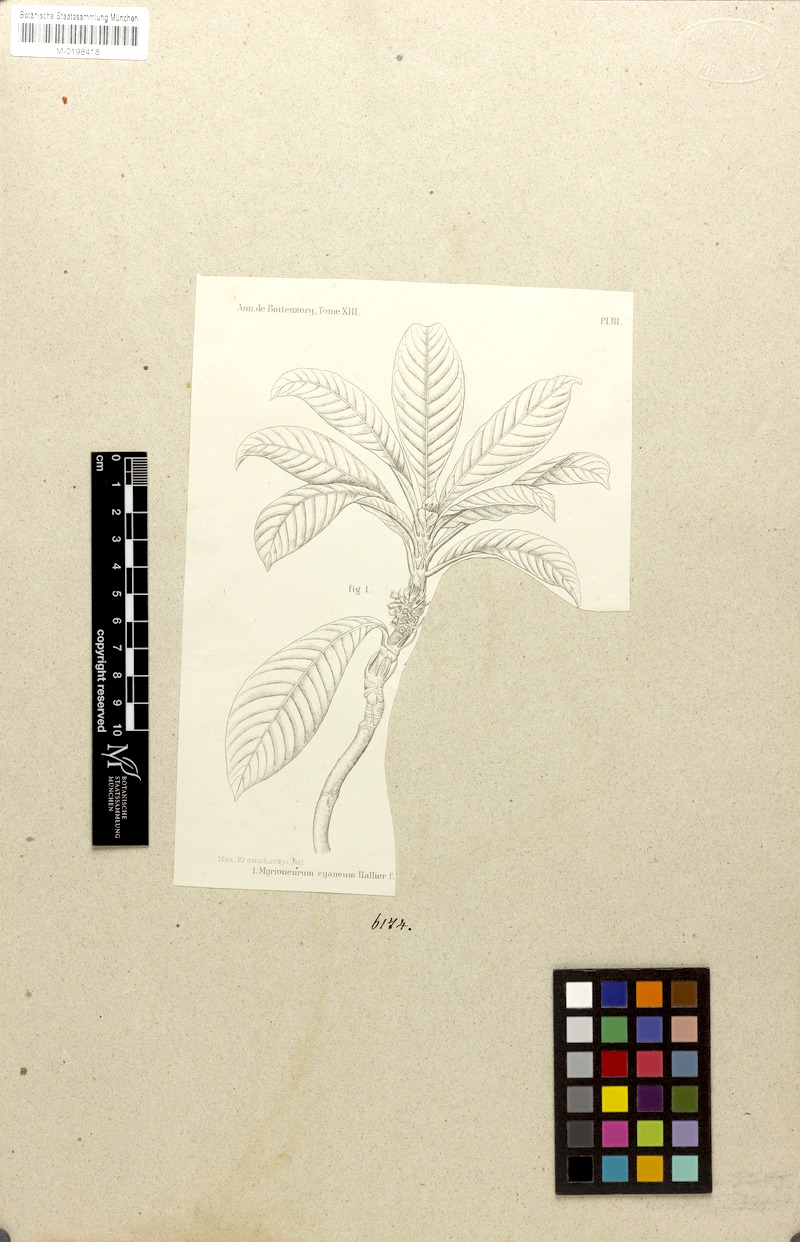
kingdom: Plantae
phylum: Tracheophyta
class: Magnoliopsida
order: Gentianales
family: Rubiaceae
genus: Cyanoneuron
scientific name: Cyanoneuron cyaneum
